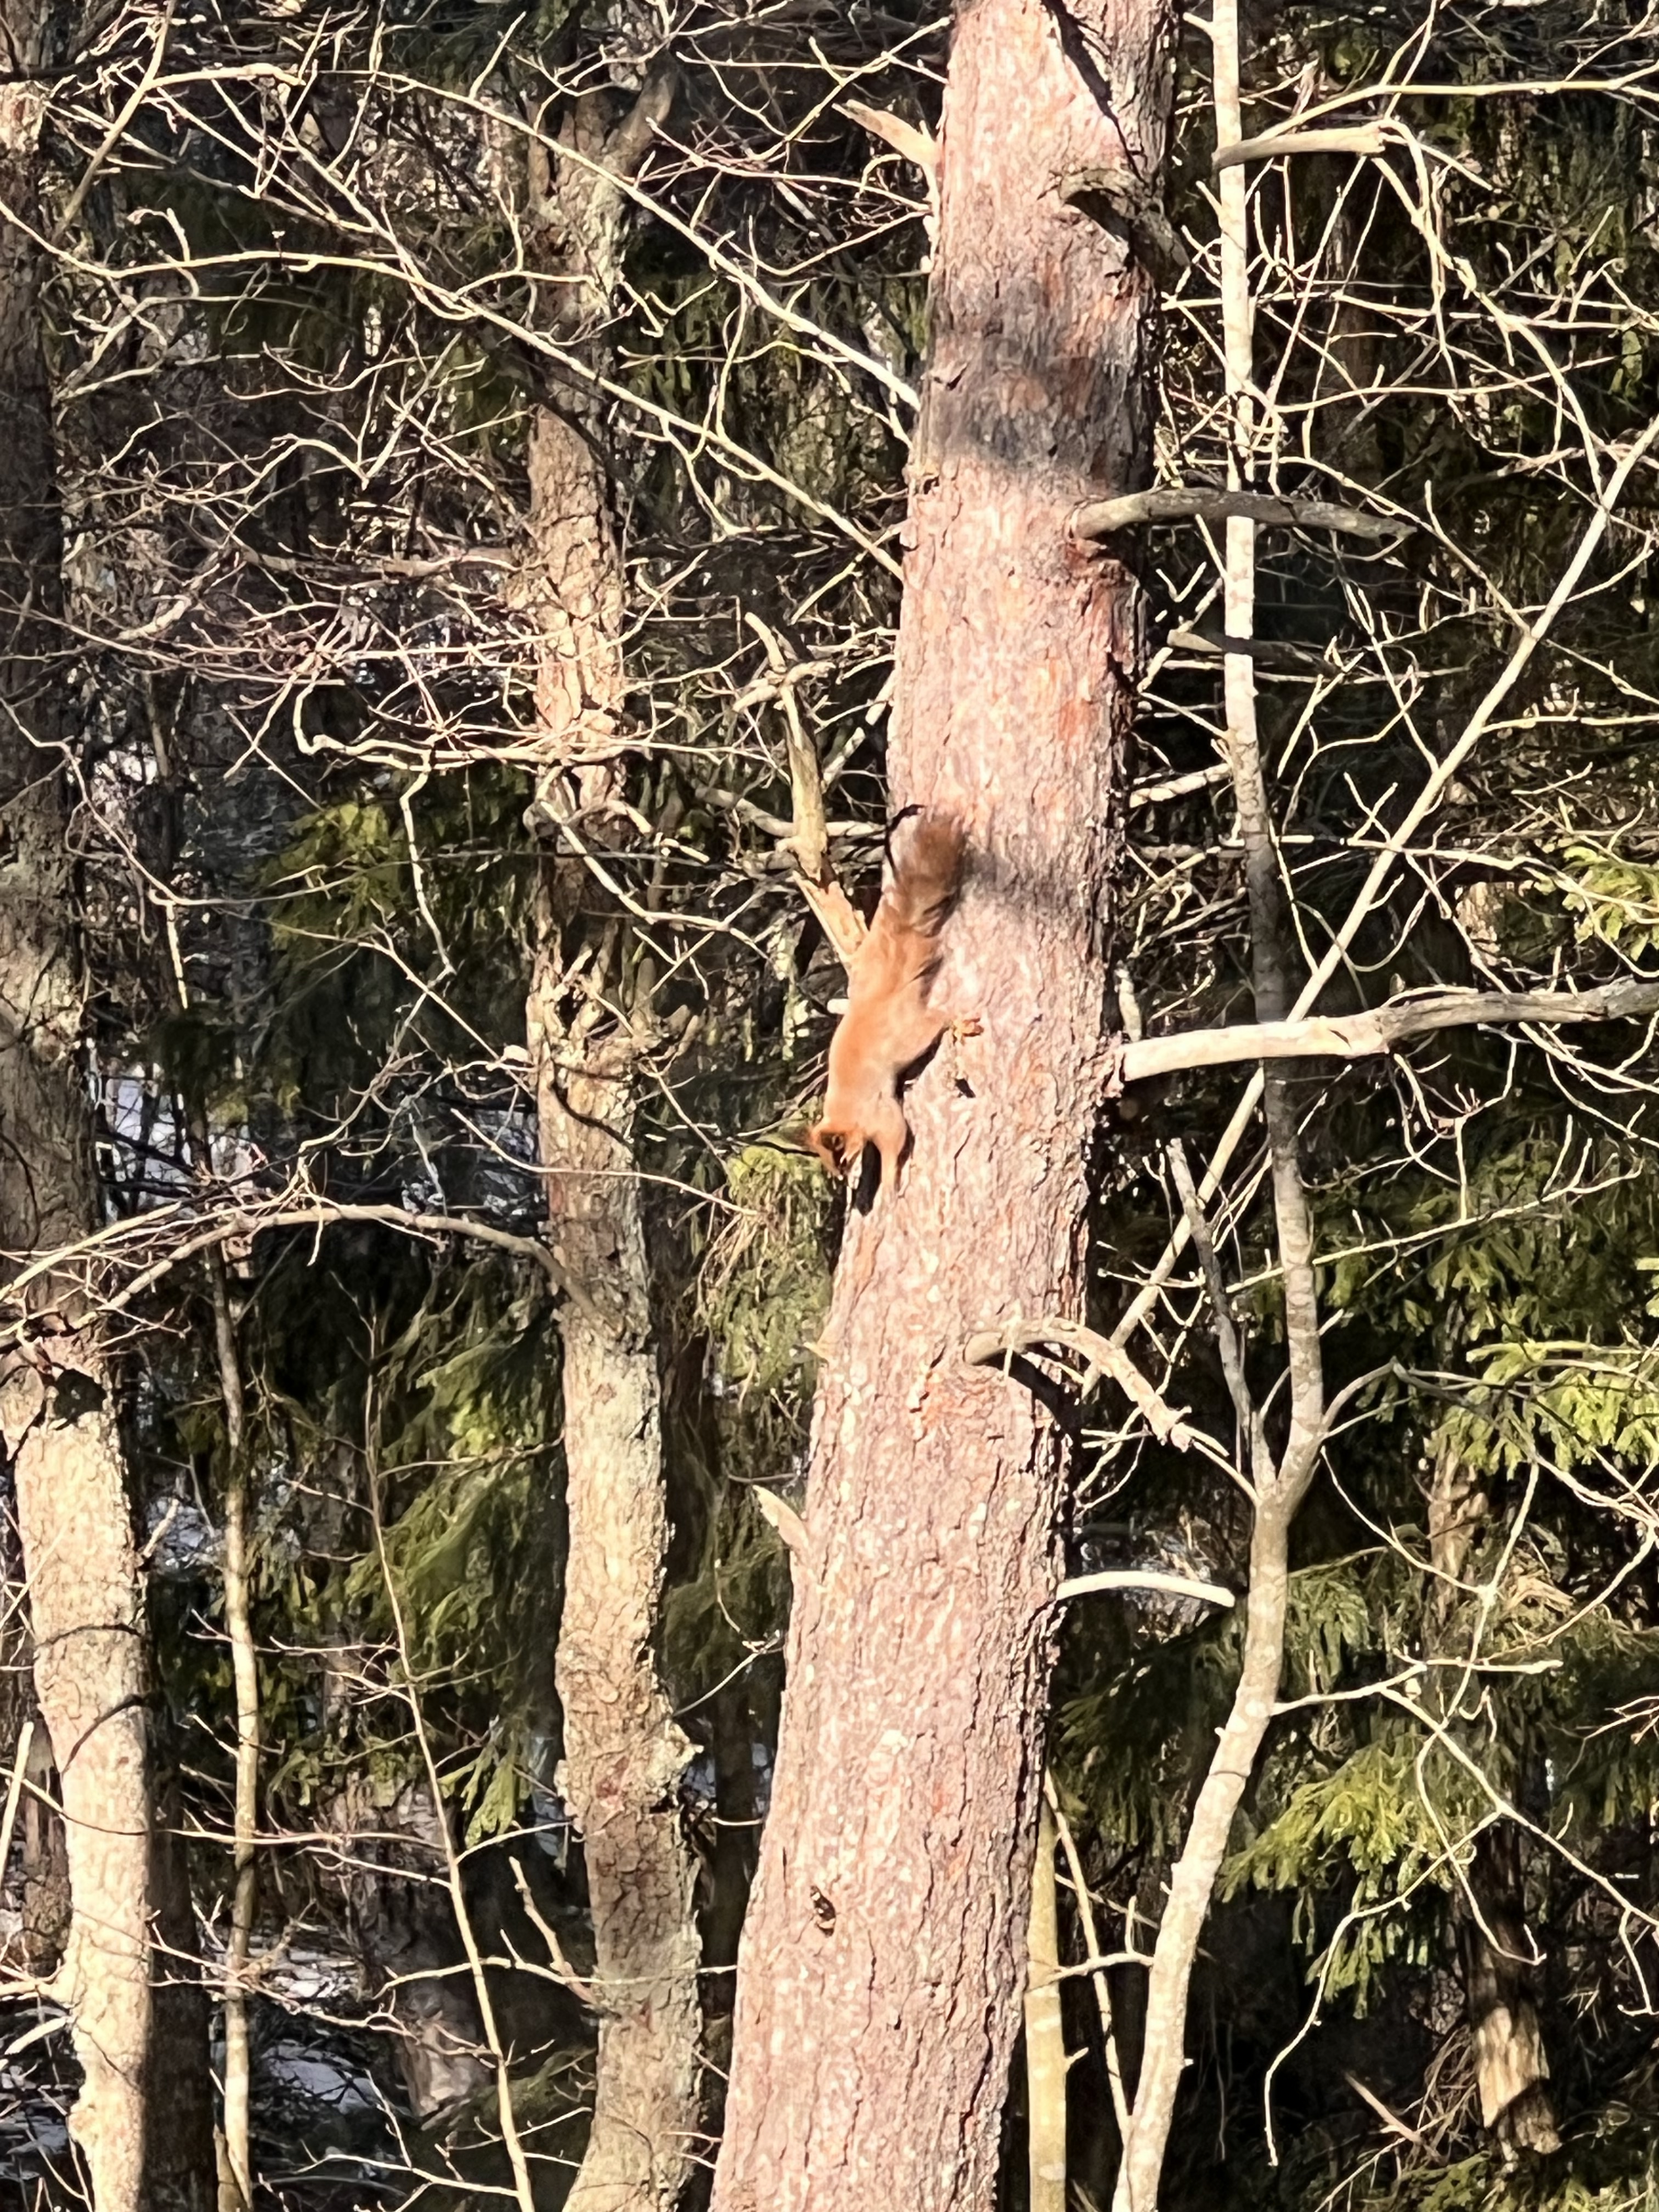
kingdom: Animalia
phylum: Chordata
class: Mammalia
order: Rodentia
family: Sciuridae
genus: Sciurus
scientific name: Sciurus vulgaris
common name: Eurasian red squirrel
